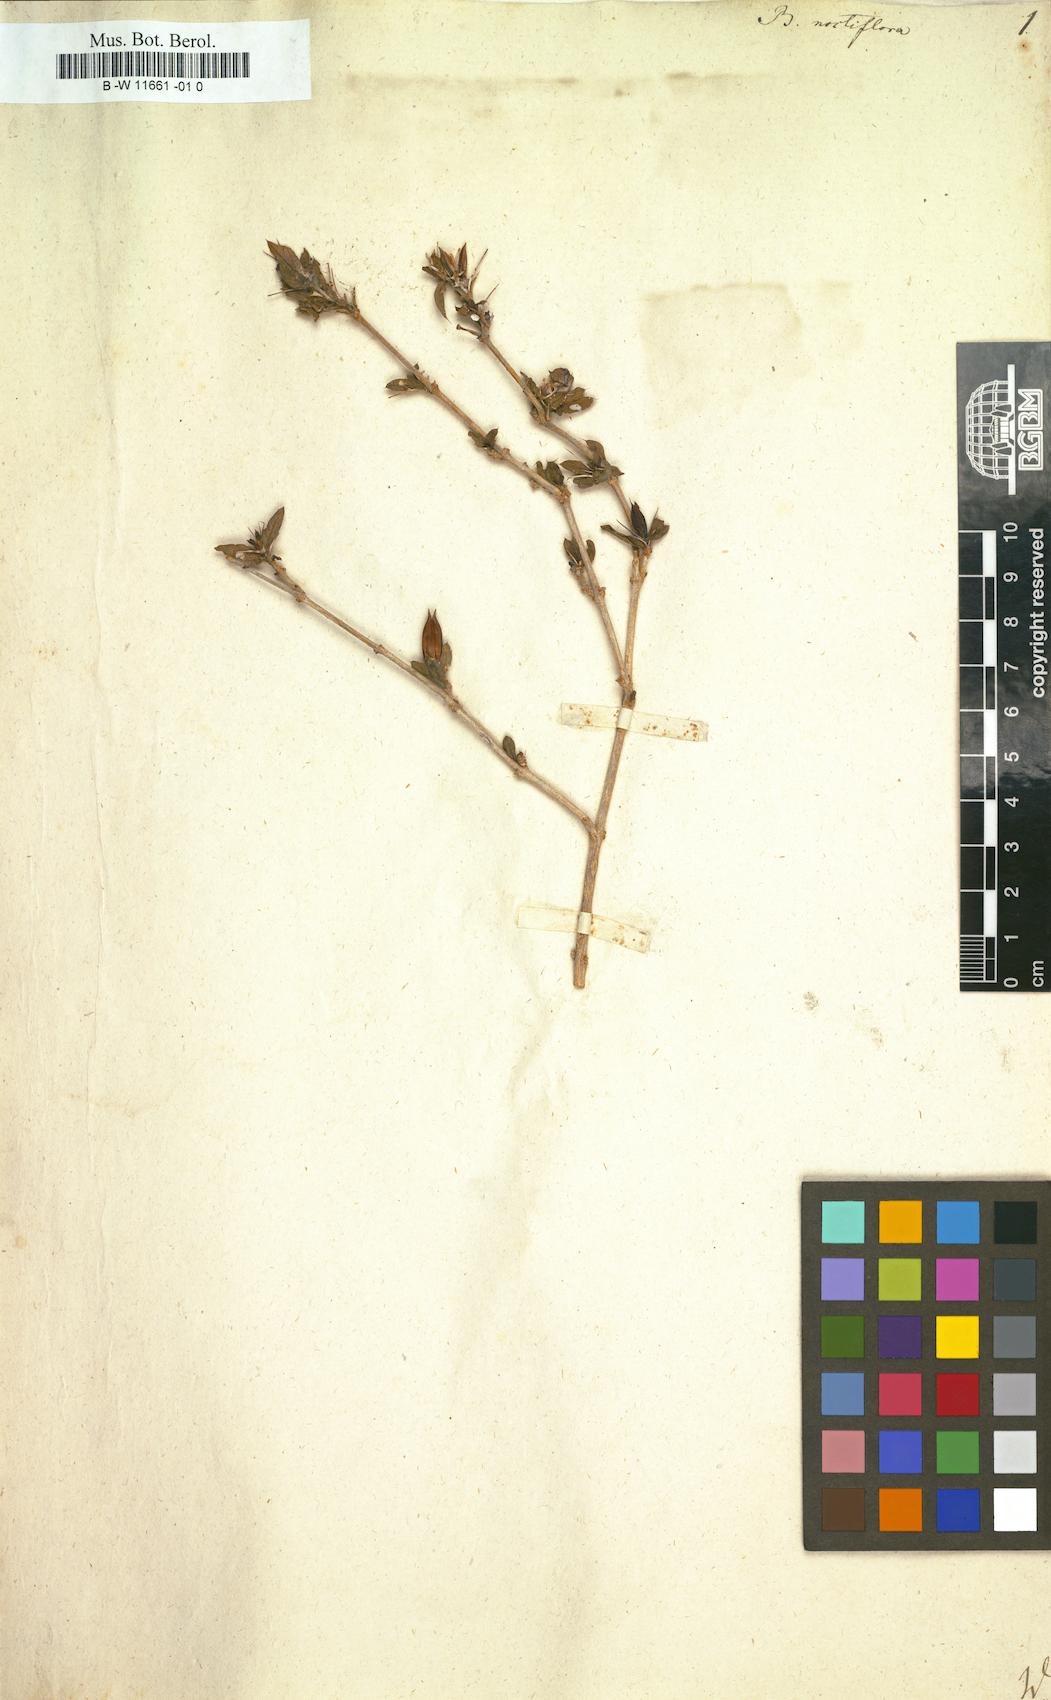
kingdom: Plantae
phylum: Tracheophyta
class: Magnoliopsida
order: Lamiales
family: Acanthaceae
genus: Barleria
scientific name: Barleria noctiflora
